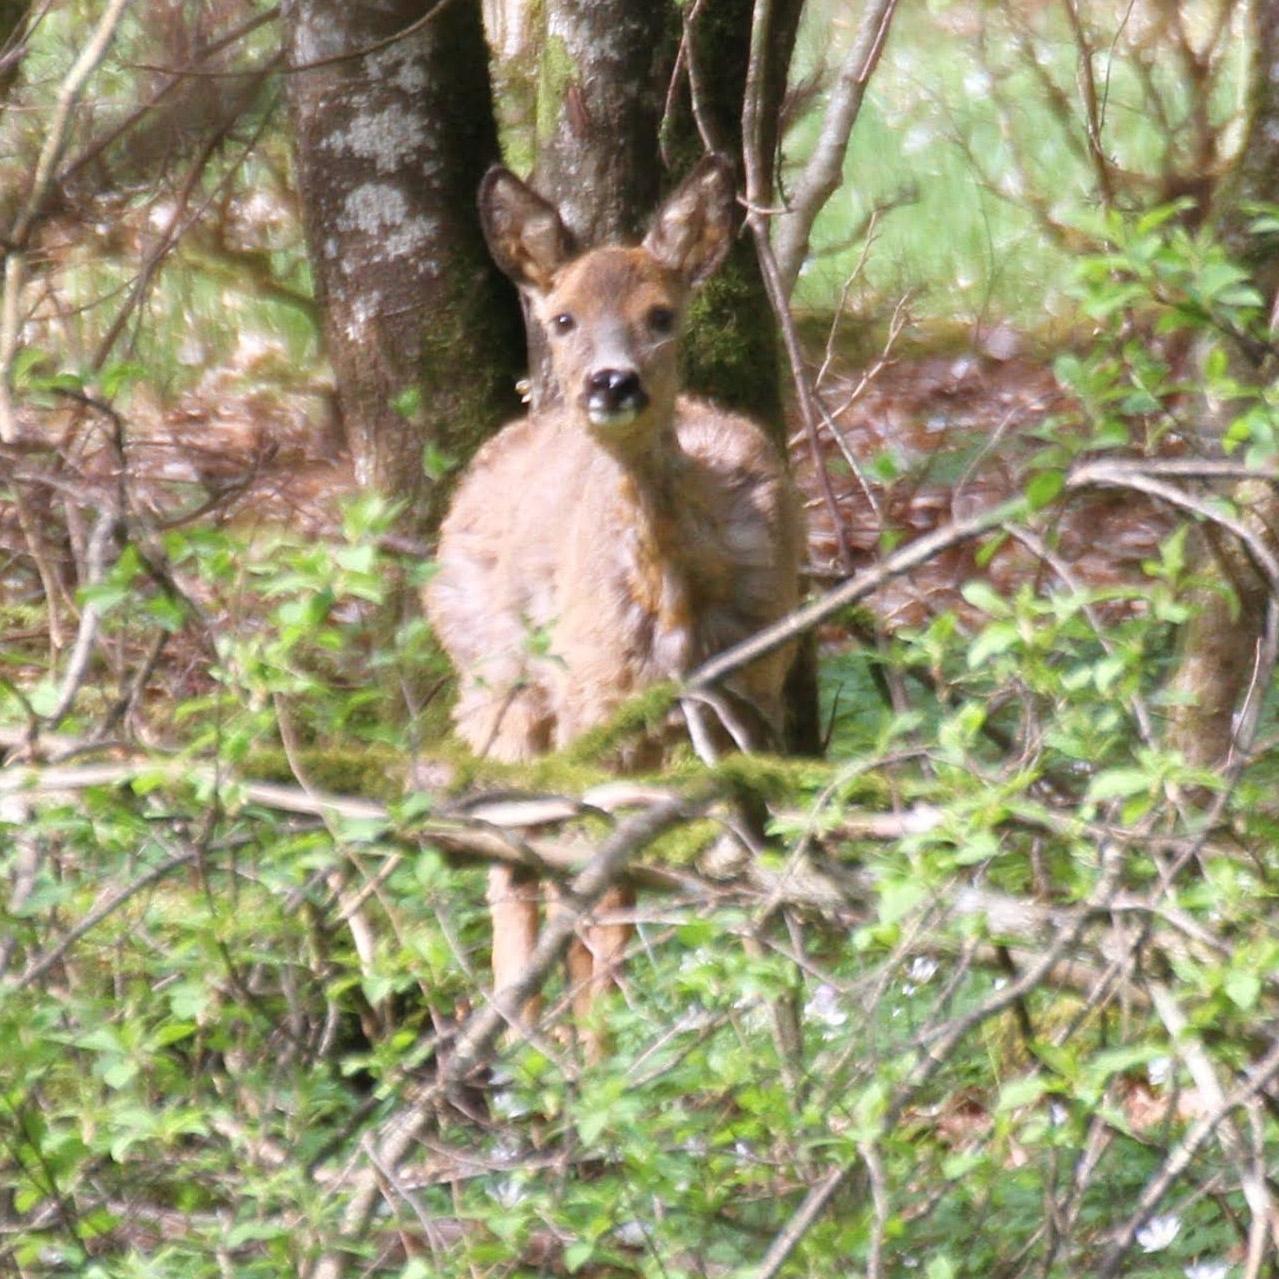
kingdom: Animalia
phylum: Chordata
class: Mammalia
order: Artiodactyla
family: Cervidae
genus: Capreolus
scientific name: Capreolus capreolus
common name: Rådyr
